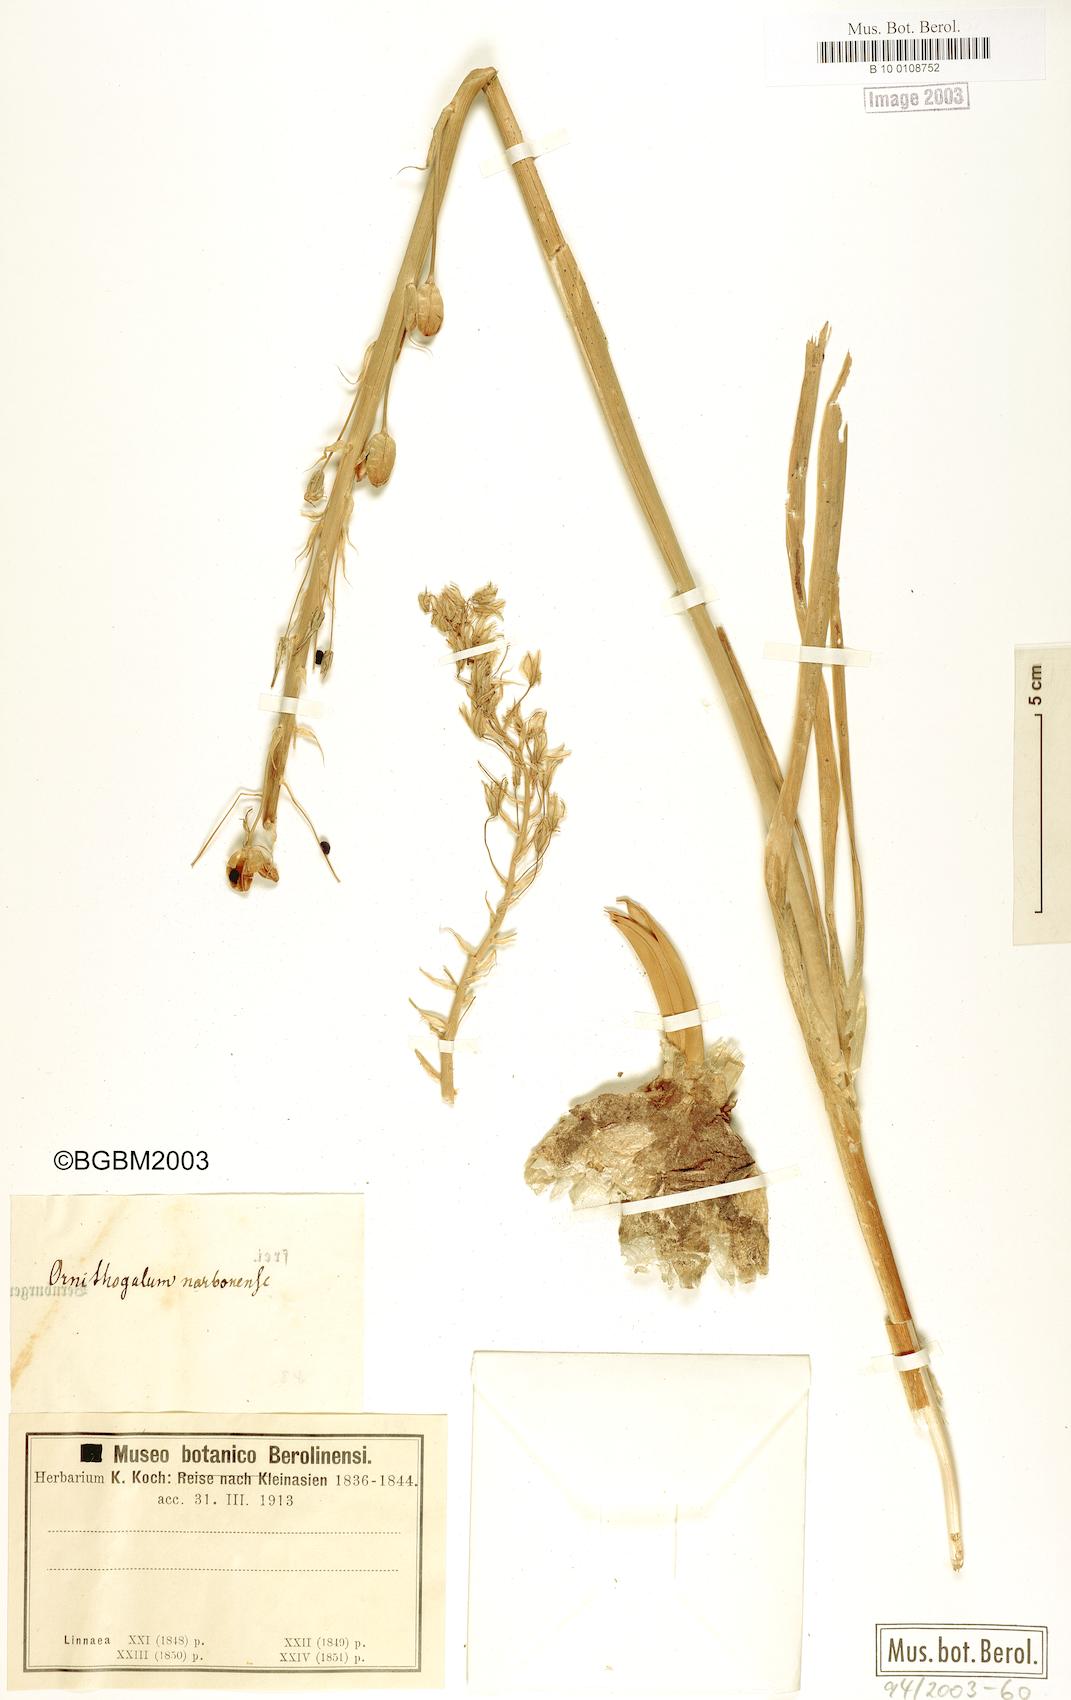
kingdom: Plantae
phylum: Tracheophyta
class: Liliopsida
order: Asparagales
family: Asparagaceae
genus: Ornithogalum
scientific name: Ornithogalum narbonense
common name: Bath-asparagus
